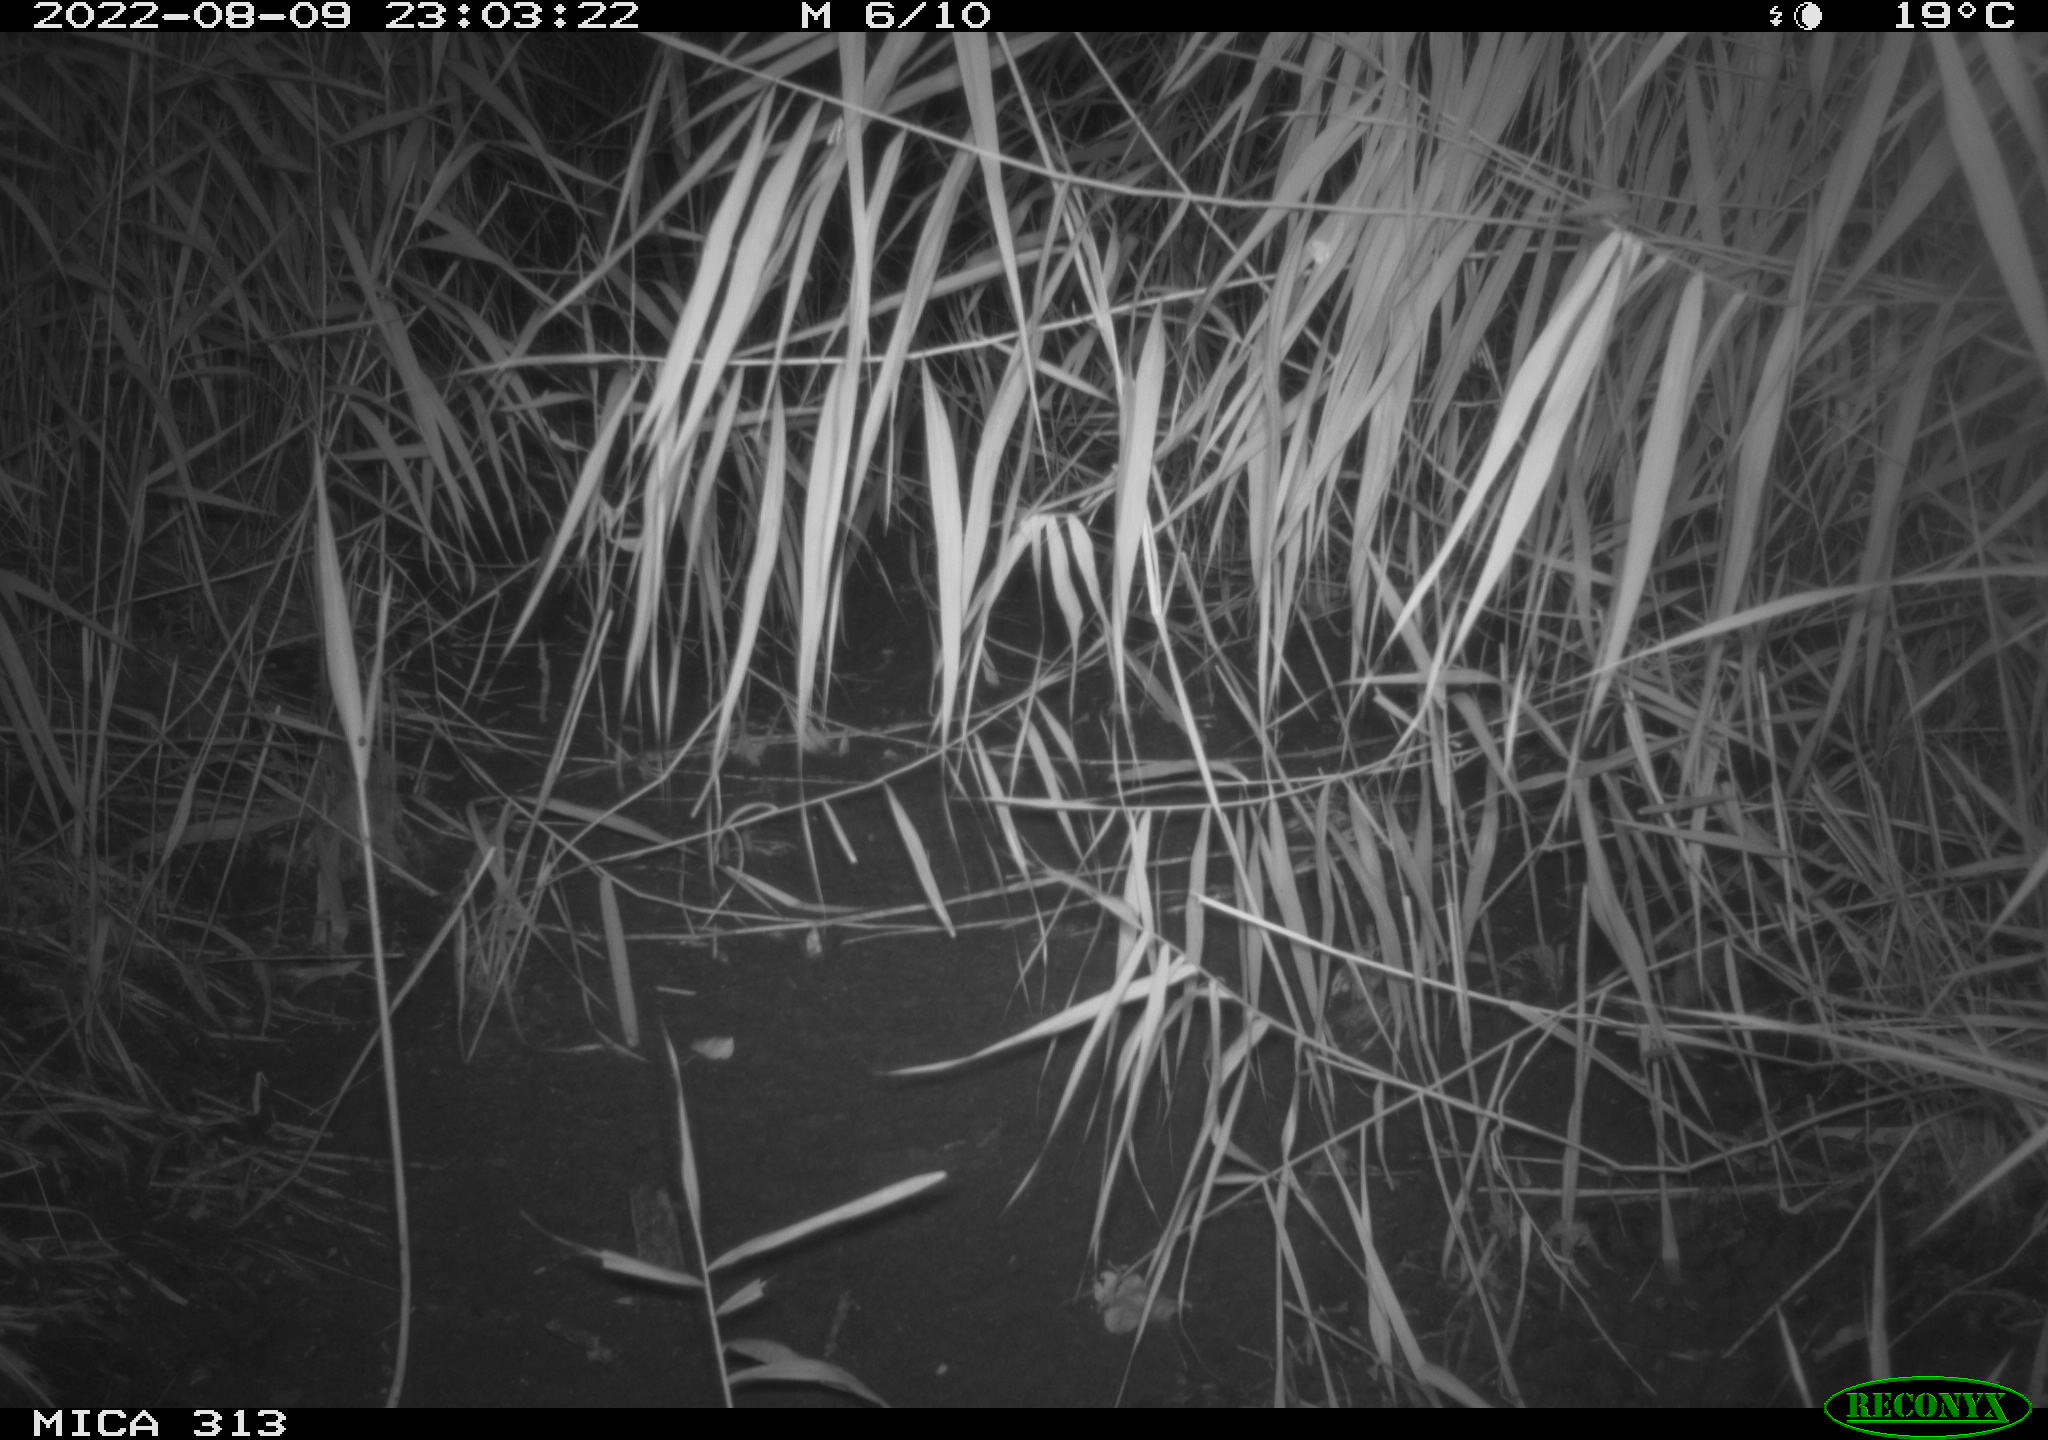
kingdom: Animalia
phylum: Chordata
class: Mammalia
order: Rodentia
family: Muridae
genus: Rattus
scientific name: Rattus norvegicus
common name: Brown rat
